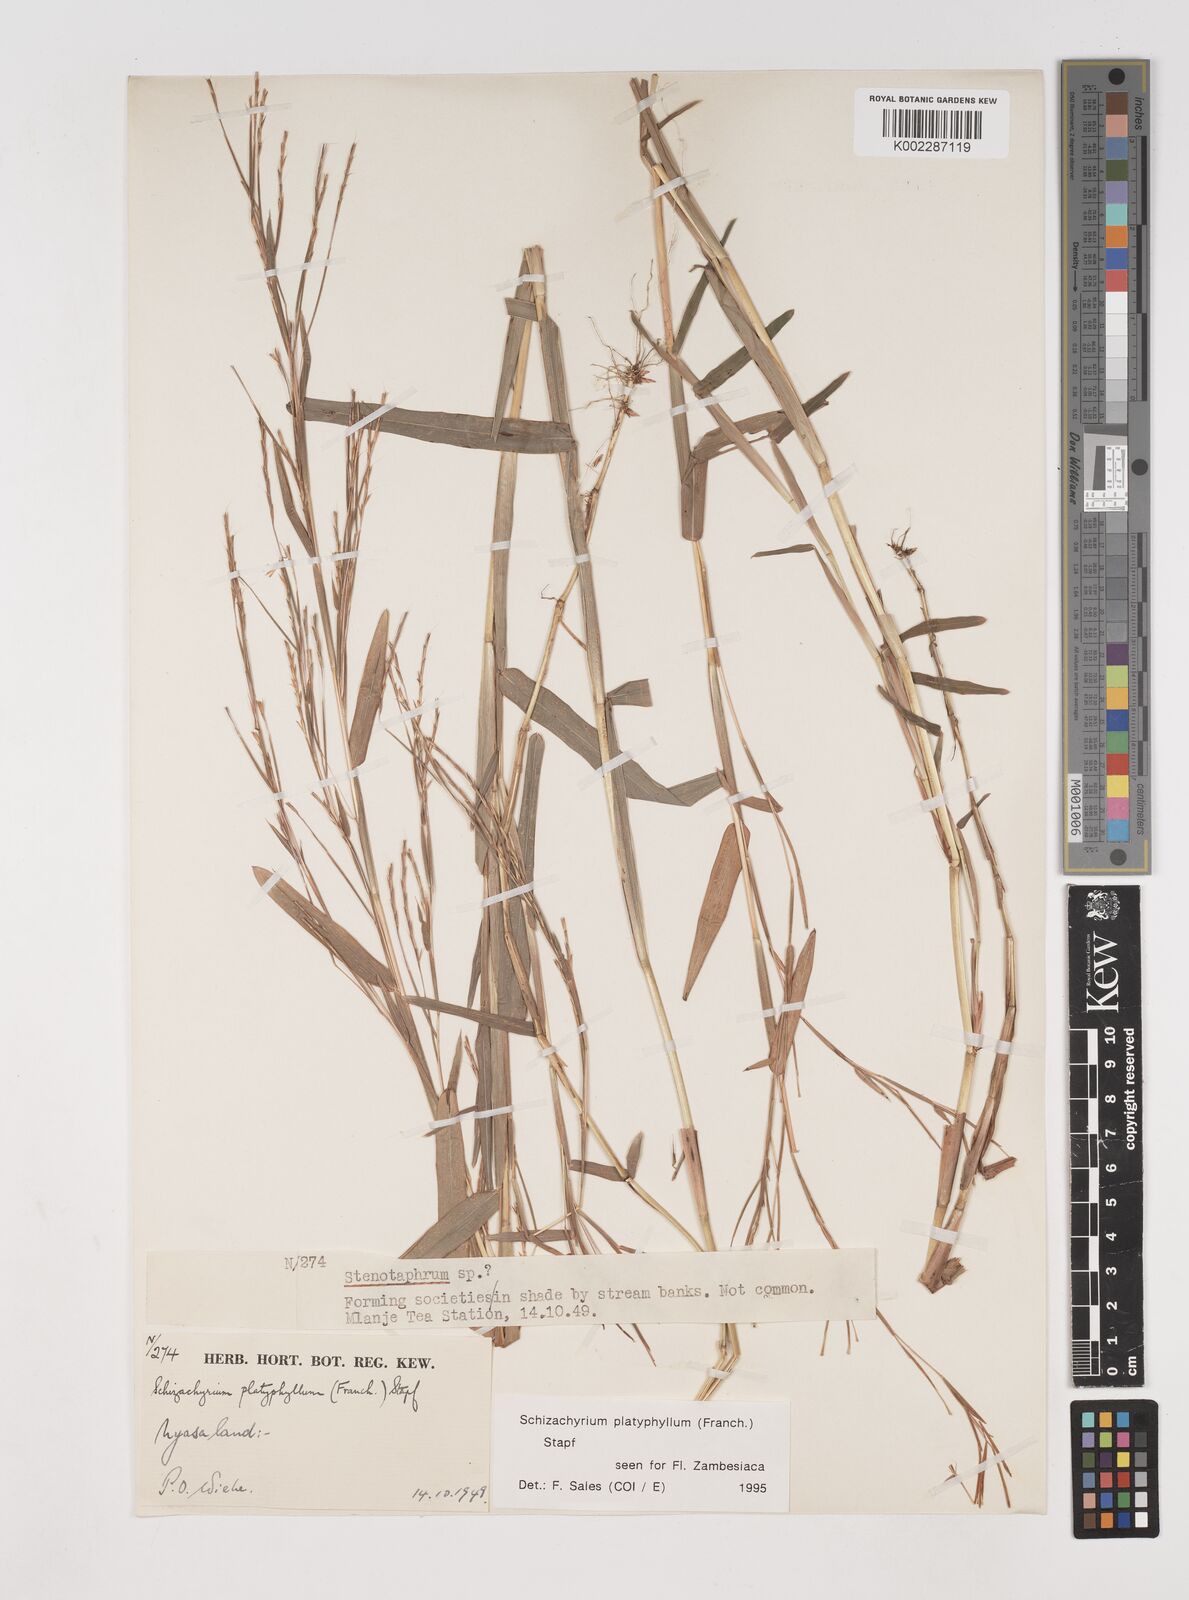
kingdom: Plantae
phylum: Tracheophyta
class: Liliopsida
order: Poales
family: Poaceae
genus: Schizachyrium
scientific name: Schizachyrium platyphyllum
